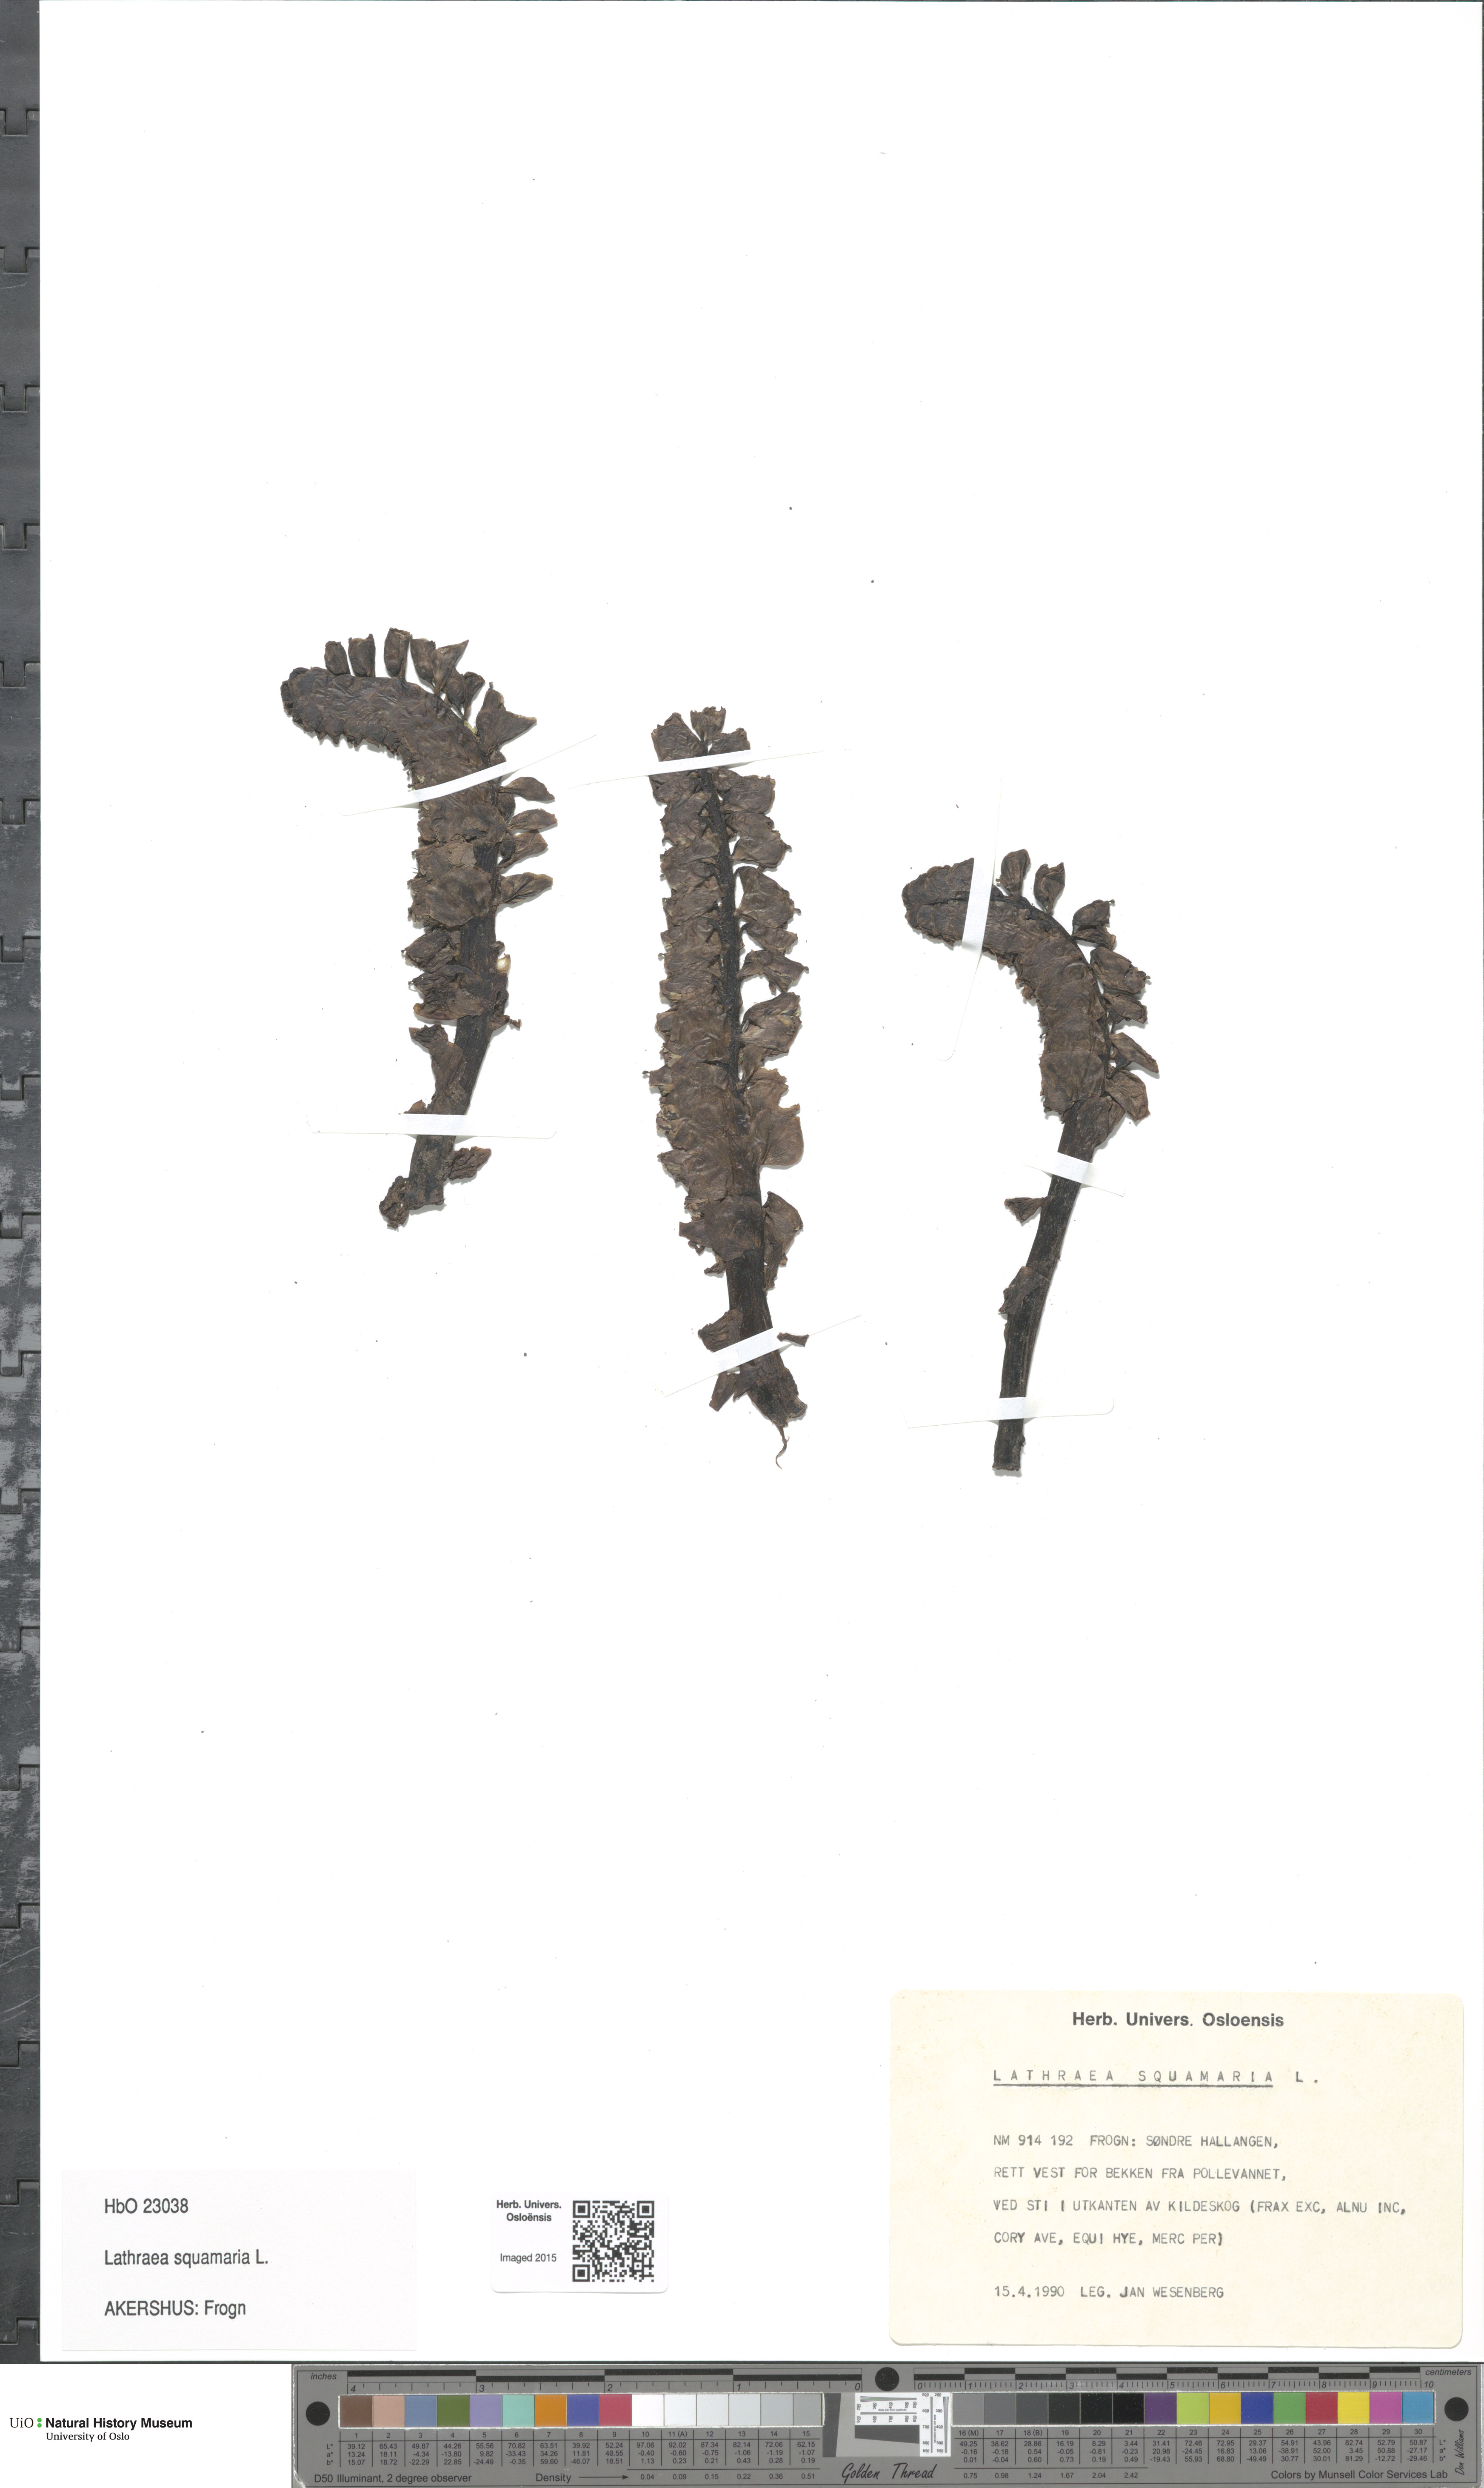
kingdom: Plantae
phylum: Tracheophyta
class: Magnoliopsida
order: Lamiales
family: Orobanchaceae
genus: Lathraea
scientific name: Lathraea squamaria
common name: Toothwort
